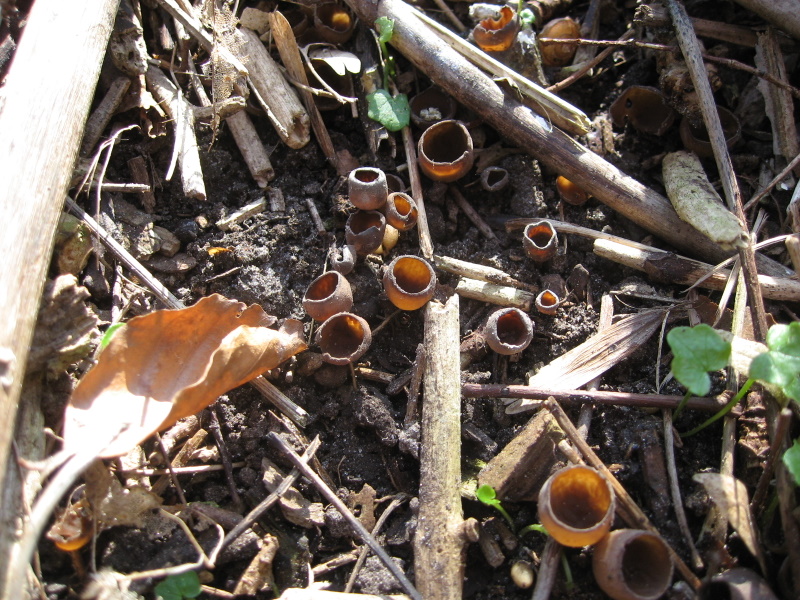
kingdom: Fungi
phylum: Ascomycota
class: Leotiomycetes
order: Helotiales
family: Sclerotiniaceae
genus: Dumontinia
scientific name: Dumontinia tuberosa
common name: anemone-knoldskive
